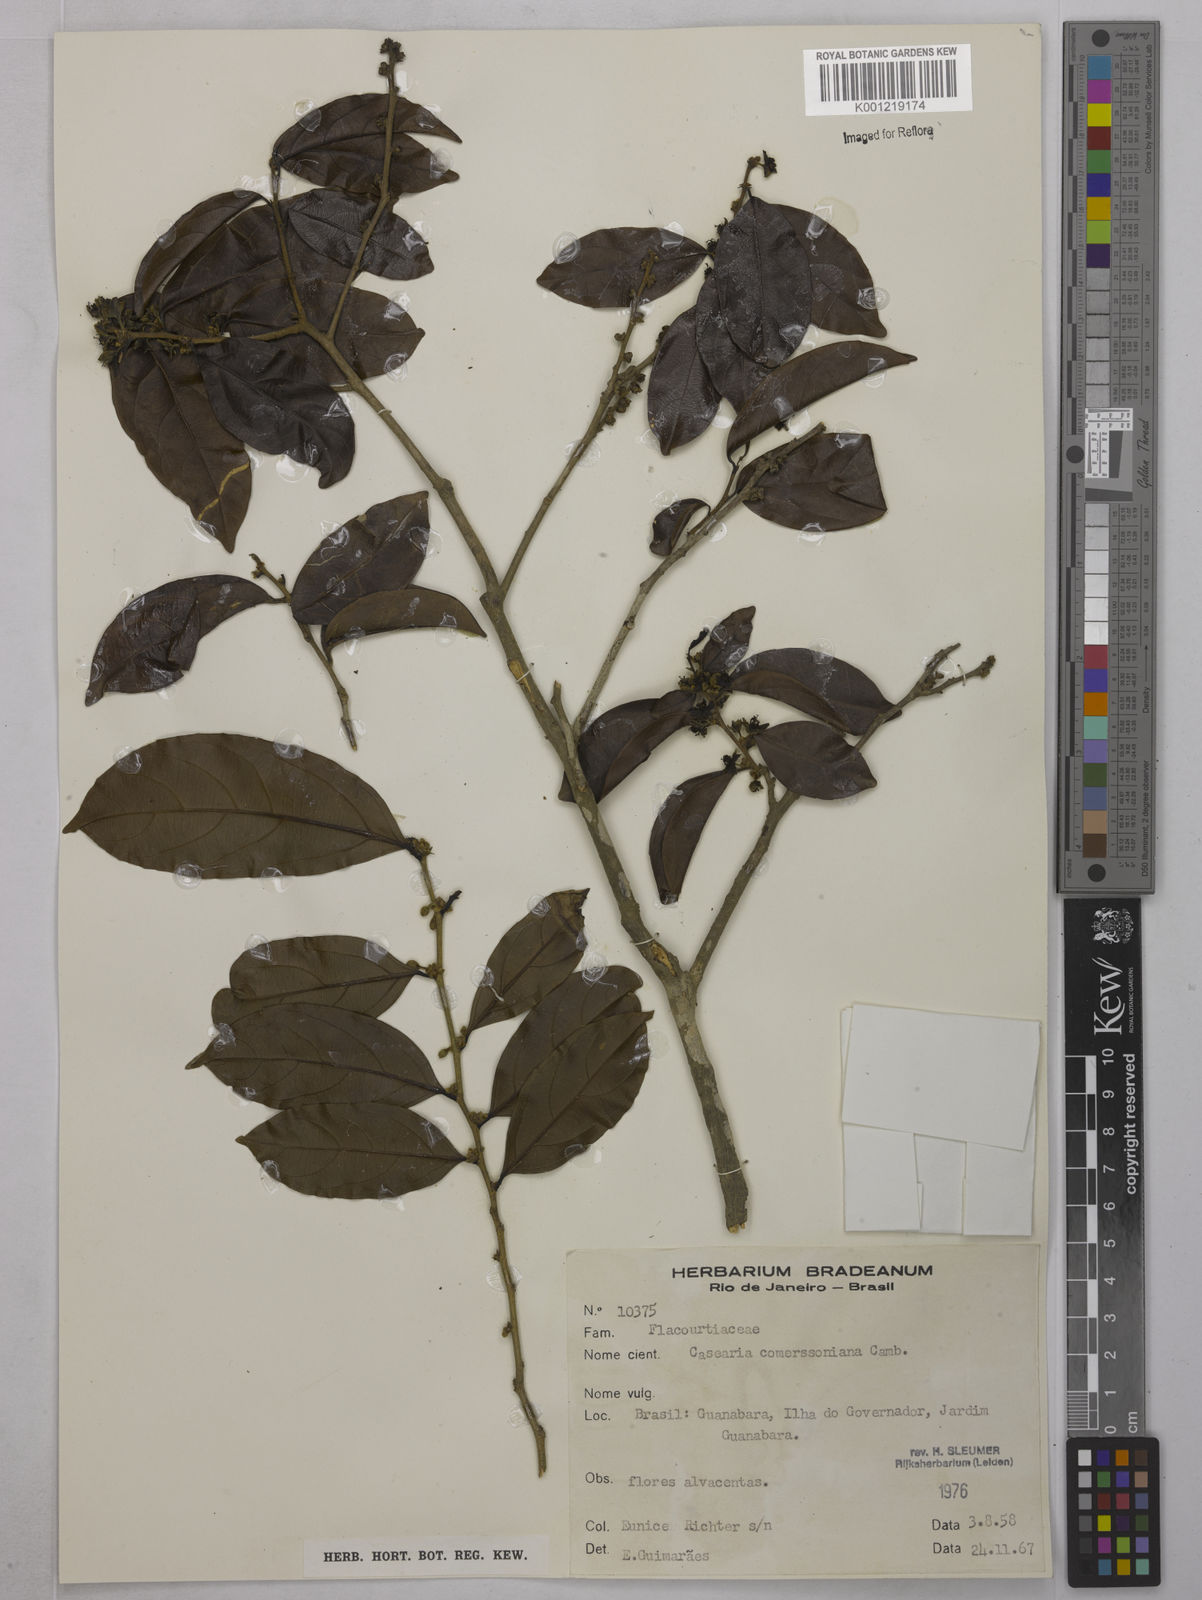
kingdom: Plantae
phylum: Tracheophyta
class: Magnoliopsida
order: Malpighiales
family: Salicaceae
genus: Piparea
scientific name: Piparea dentata
